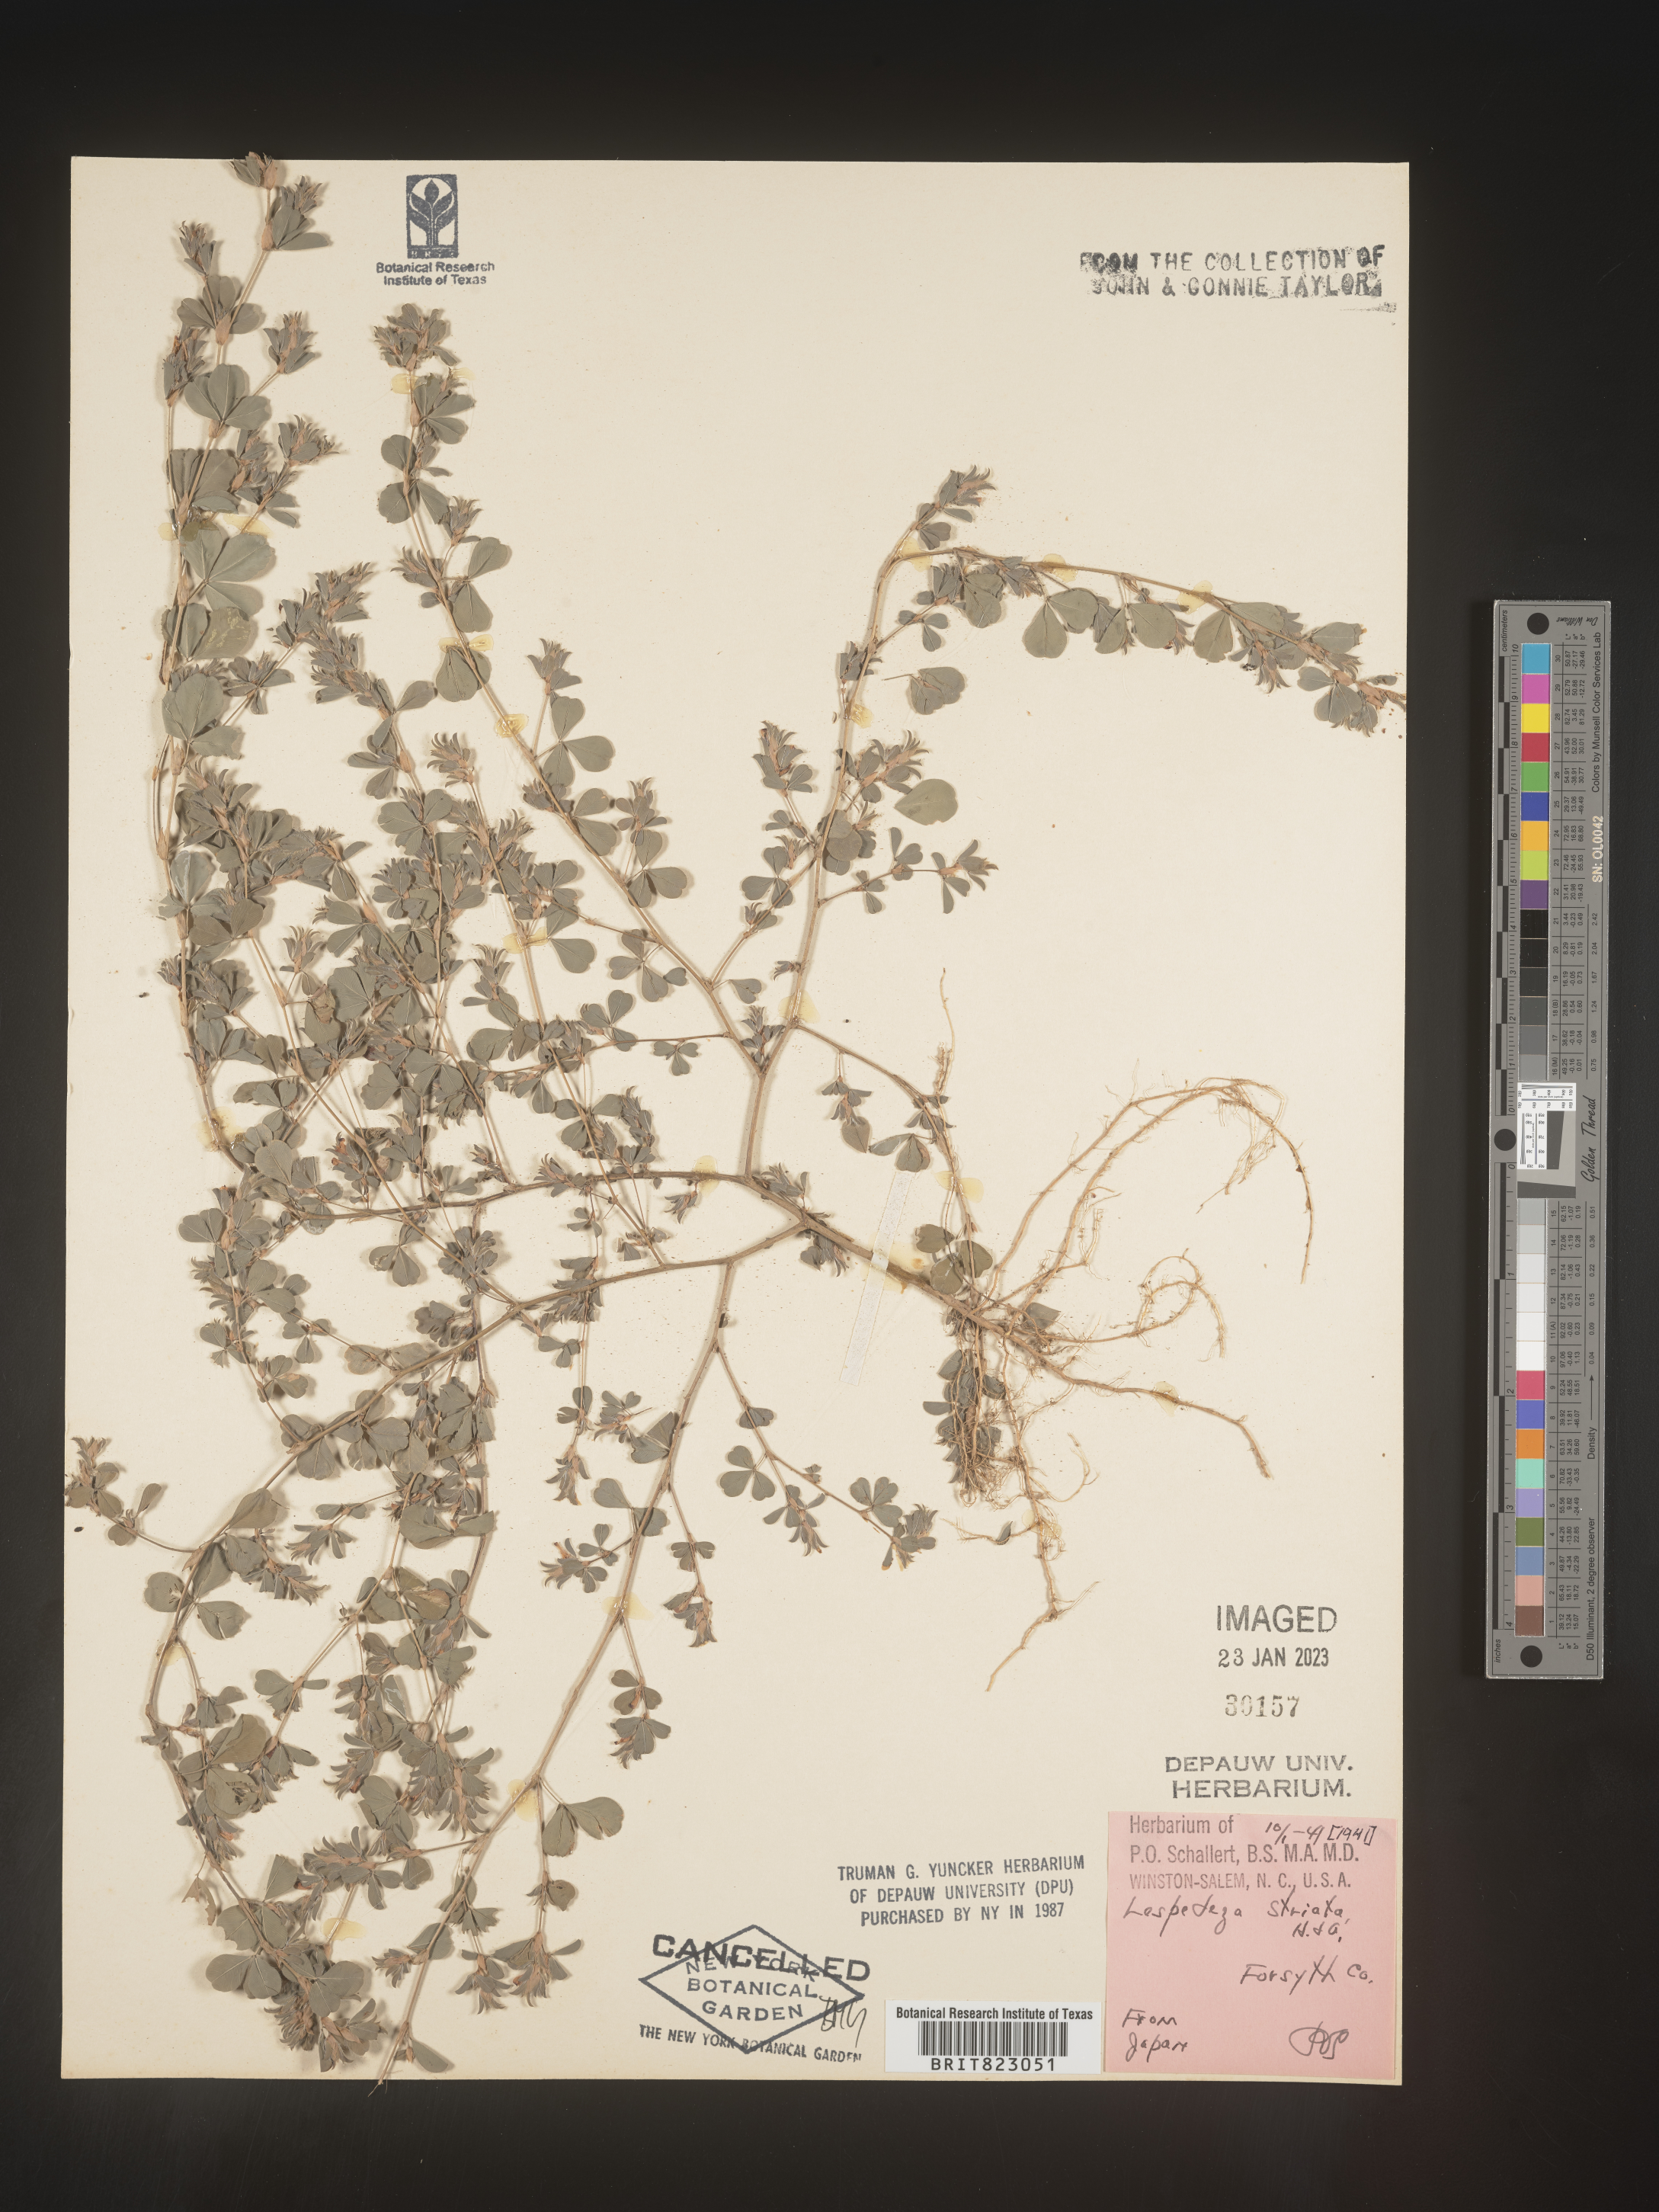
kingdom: Plantae
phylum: Tracheophyta
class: Magnoliopsida
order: Fabales
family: Fabaceae
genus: Kummerowia
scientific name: Kummerowia striata
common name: Japanese clover
